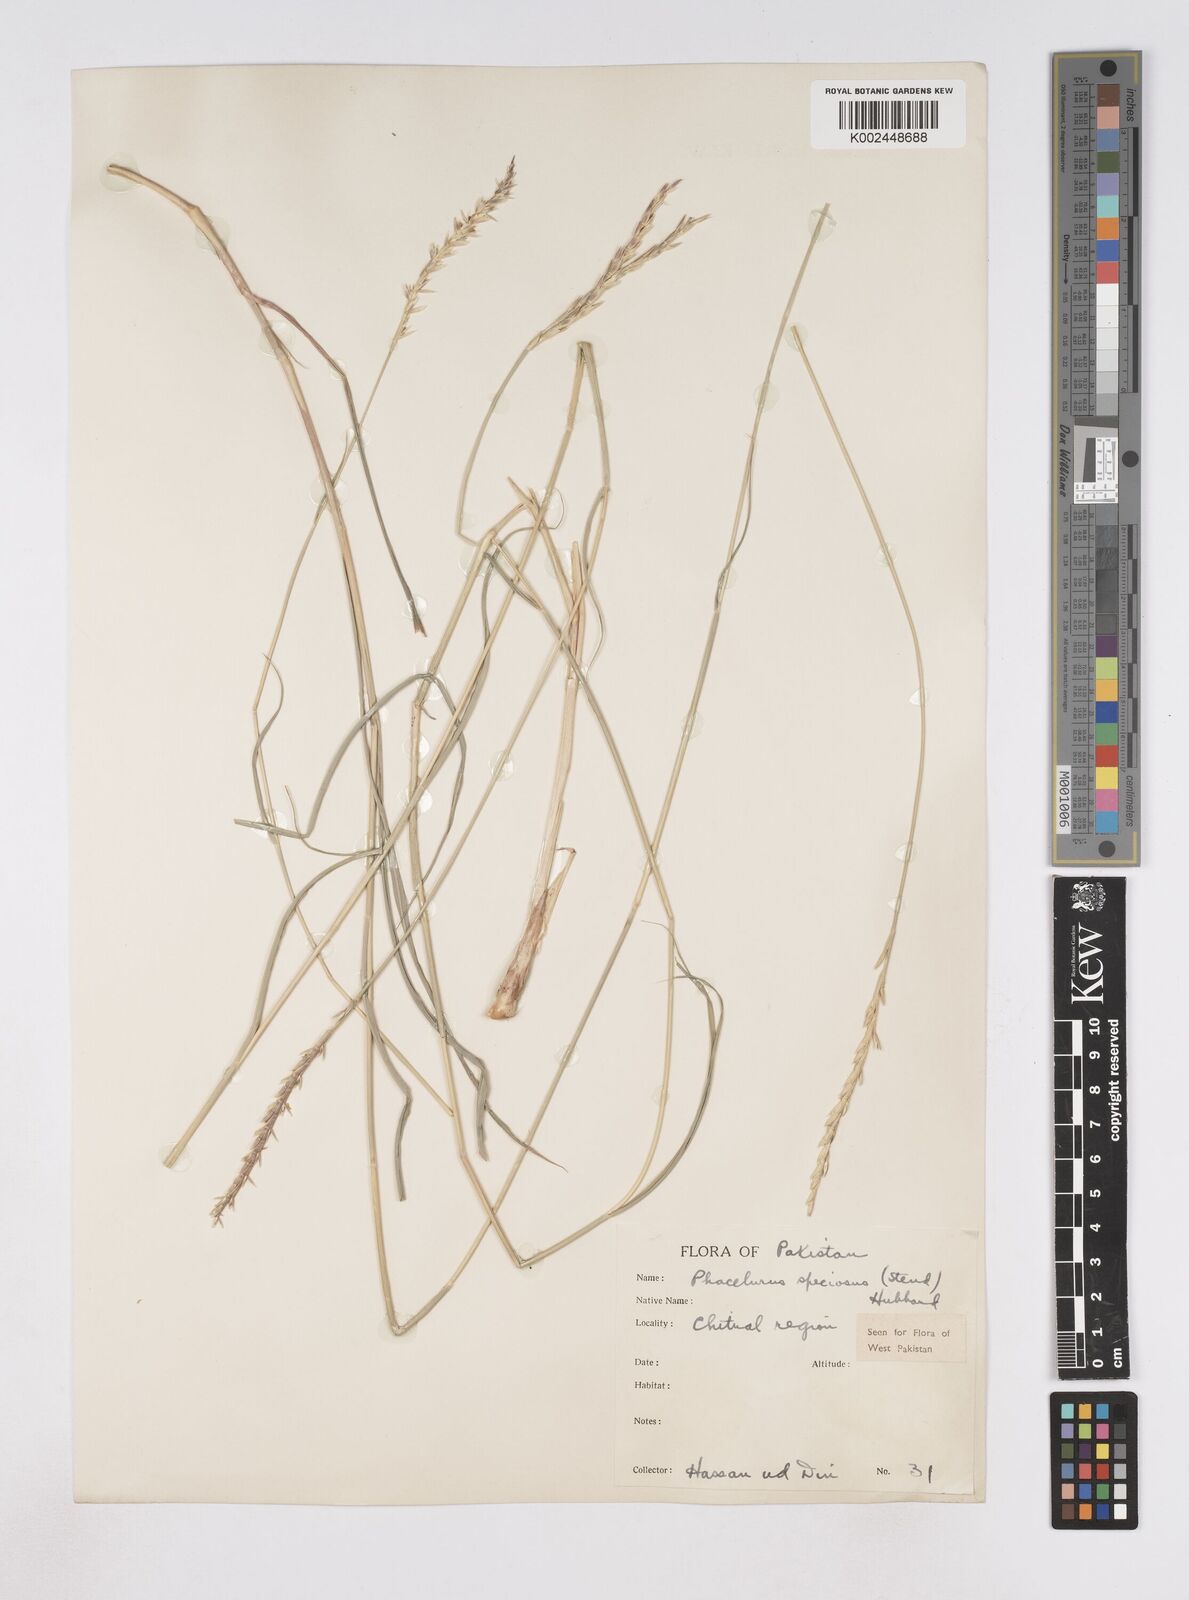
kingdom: Plantae
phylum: Tracheophyta
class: Liliopsida
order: Poales
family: Poaceae
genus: Phacelurus
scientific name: Phacelurus speciosus
